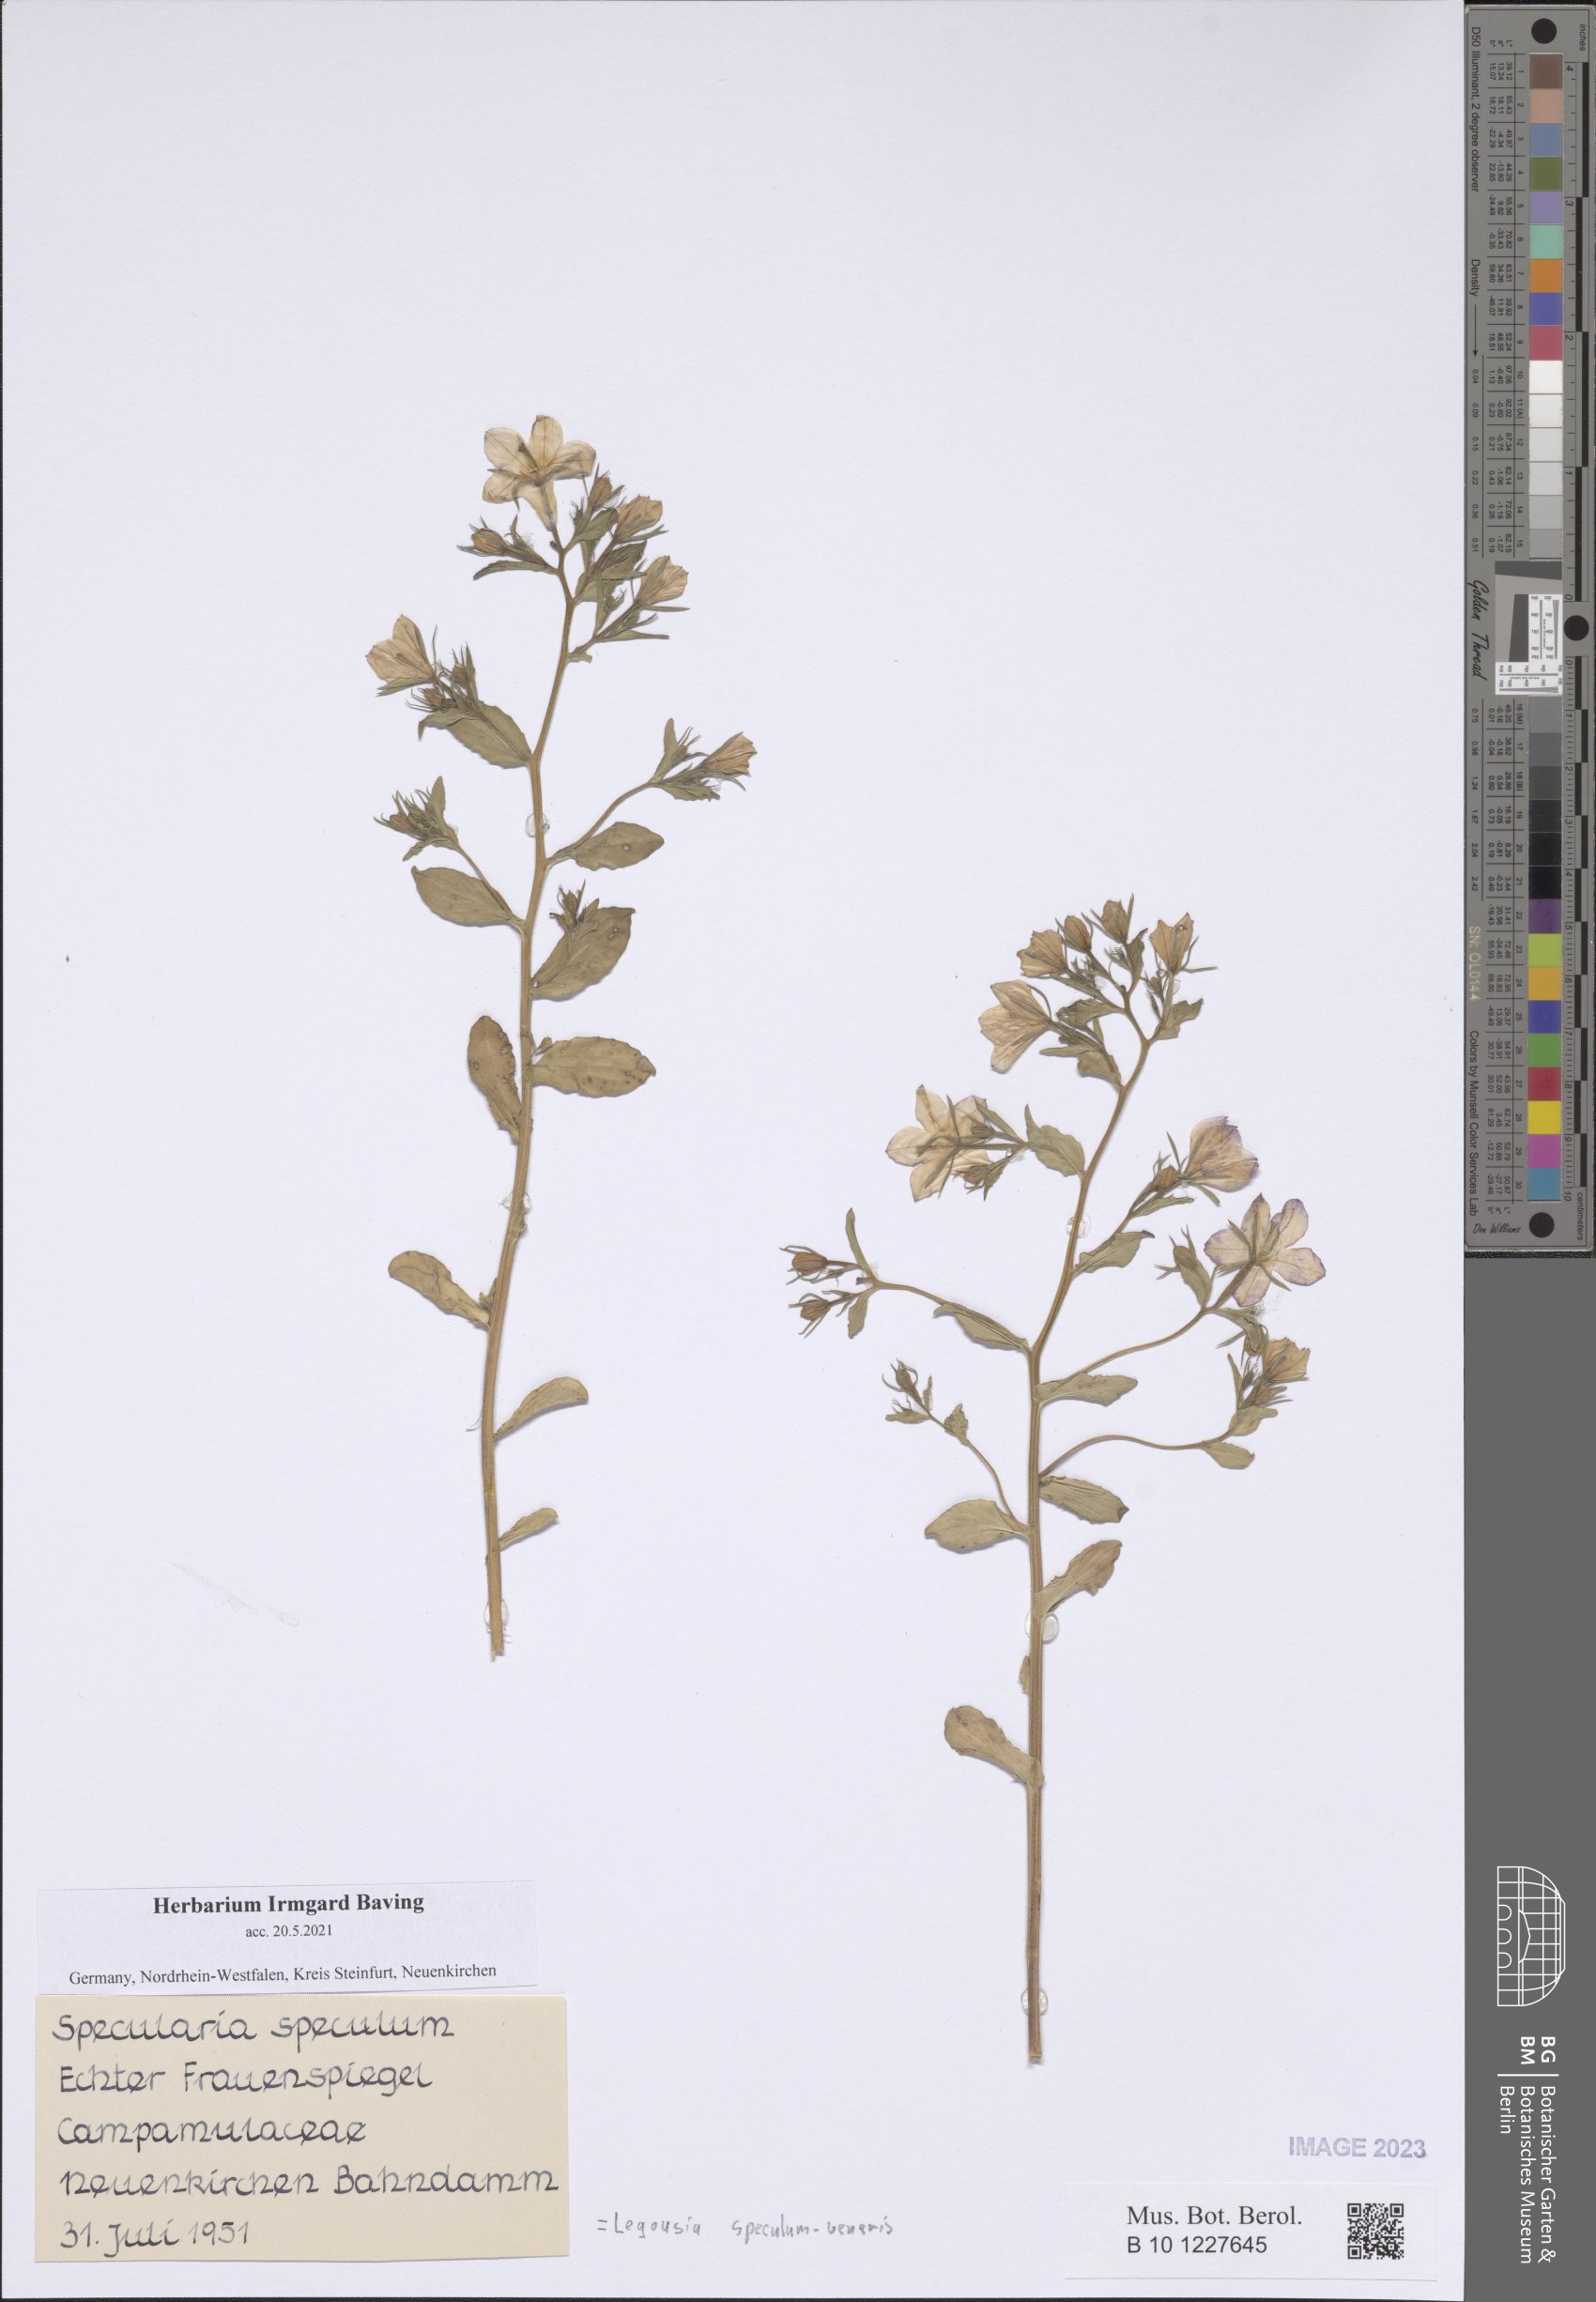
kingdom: Plantae
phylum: Tracheophyta
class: Magnoliopsida
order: Asterales
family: Campanulaceae
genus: Legousia
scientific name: Legousia speculum-veneris
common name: Large venus's-looking-glass
